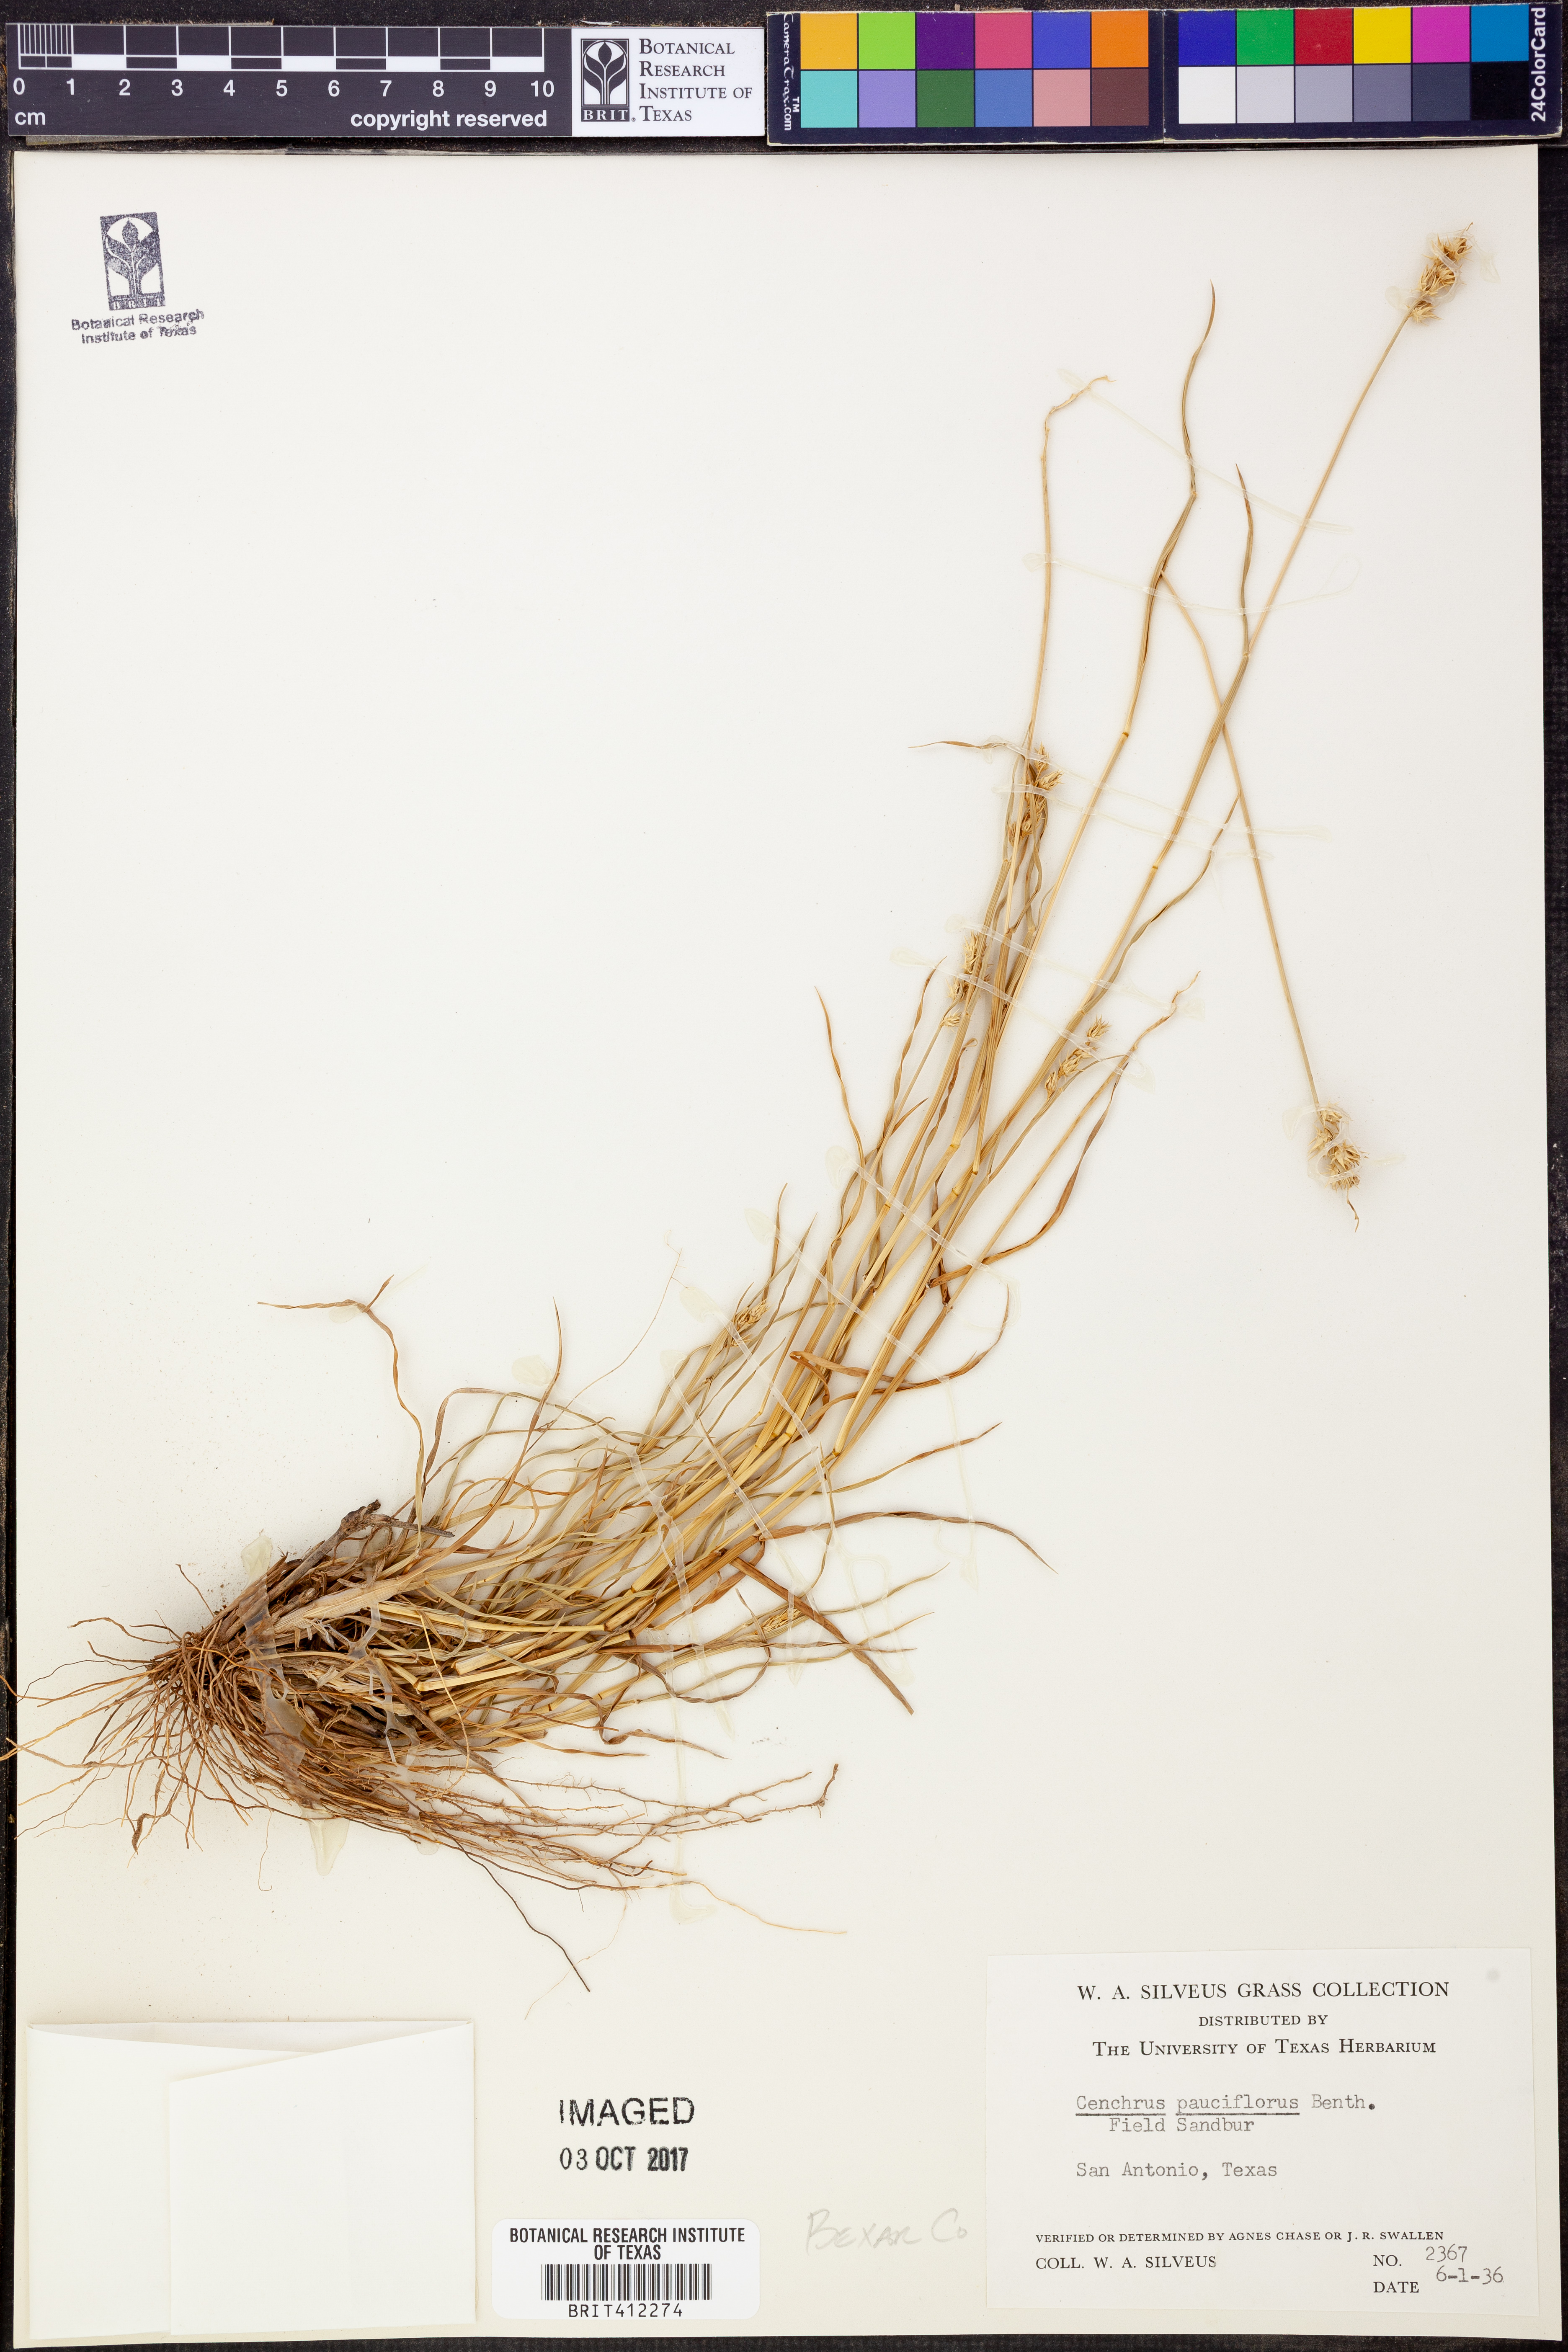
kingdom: Plantae
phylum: Tracheophyta
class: Liliopsida
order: Poales
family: Poaceae
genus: Cenchrus
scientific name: Cenchrus spinifex
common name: Coast sandbur
